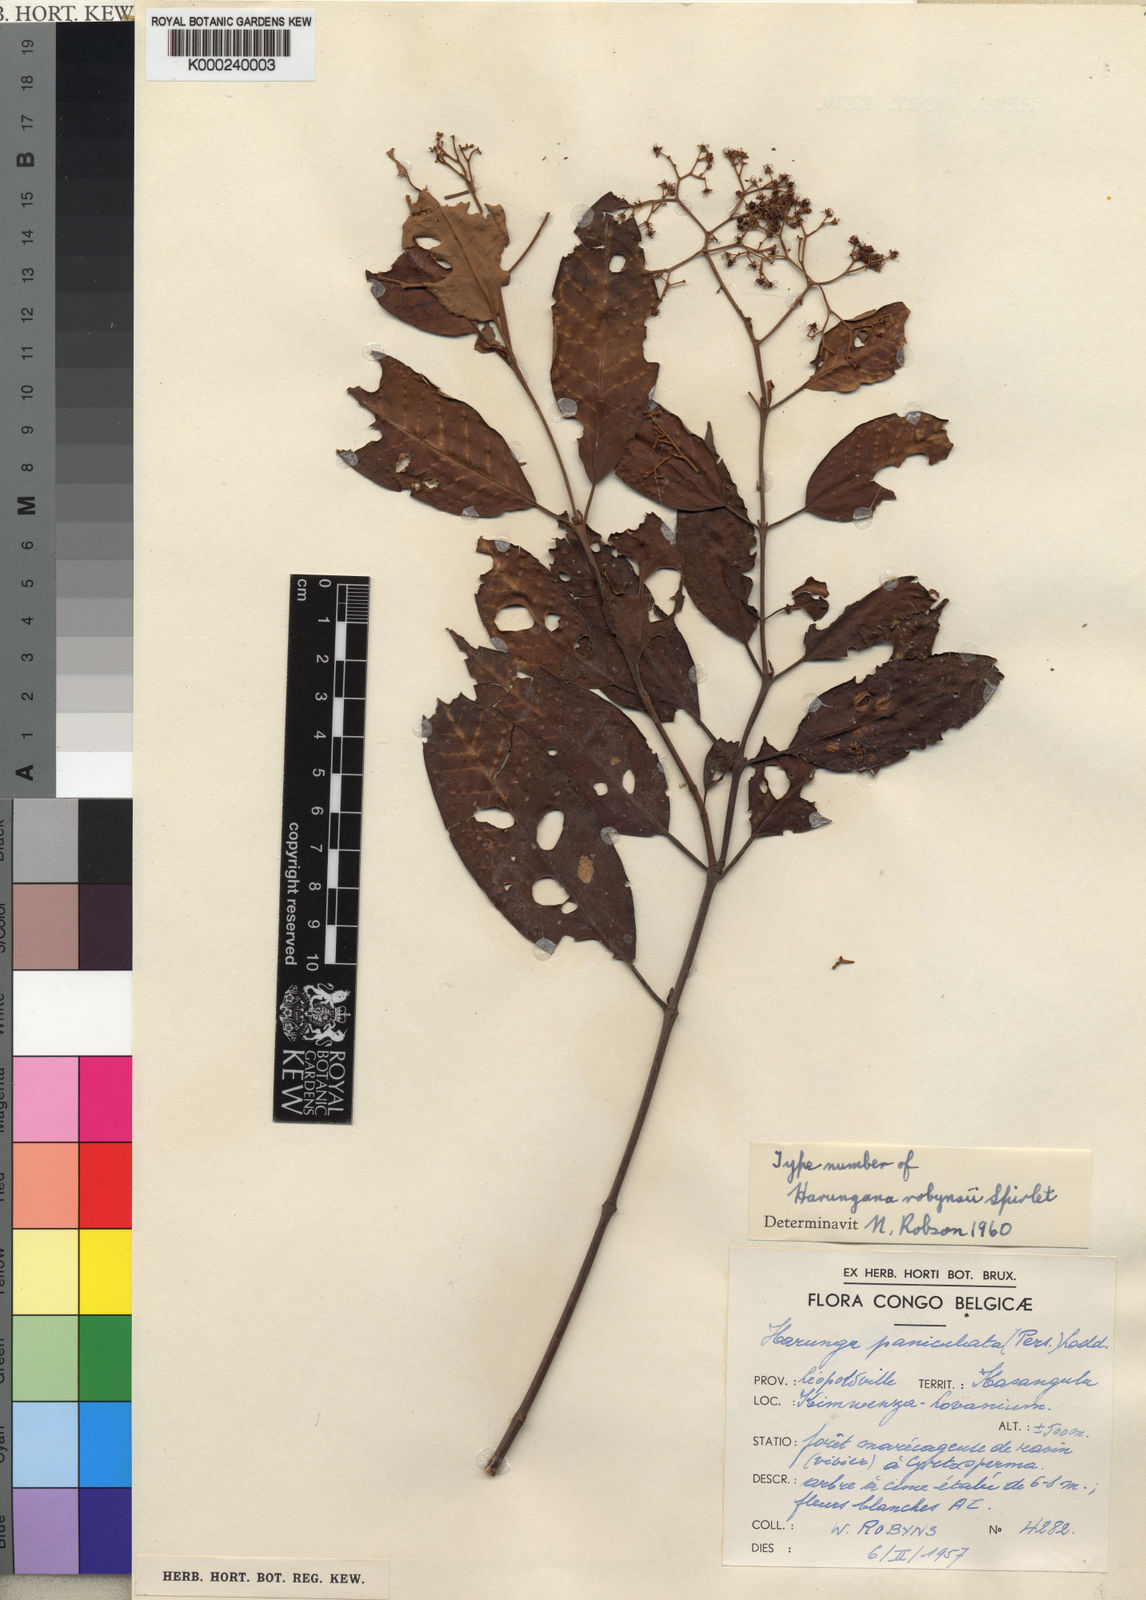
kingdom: Plantae
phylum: Tracheophyta
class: Magnoliopsida
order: Malpighiales
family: Hypericaceae
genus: Harungana
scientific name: Harungana madagascariensis
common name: Orange milktree
